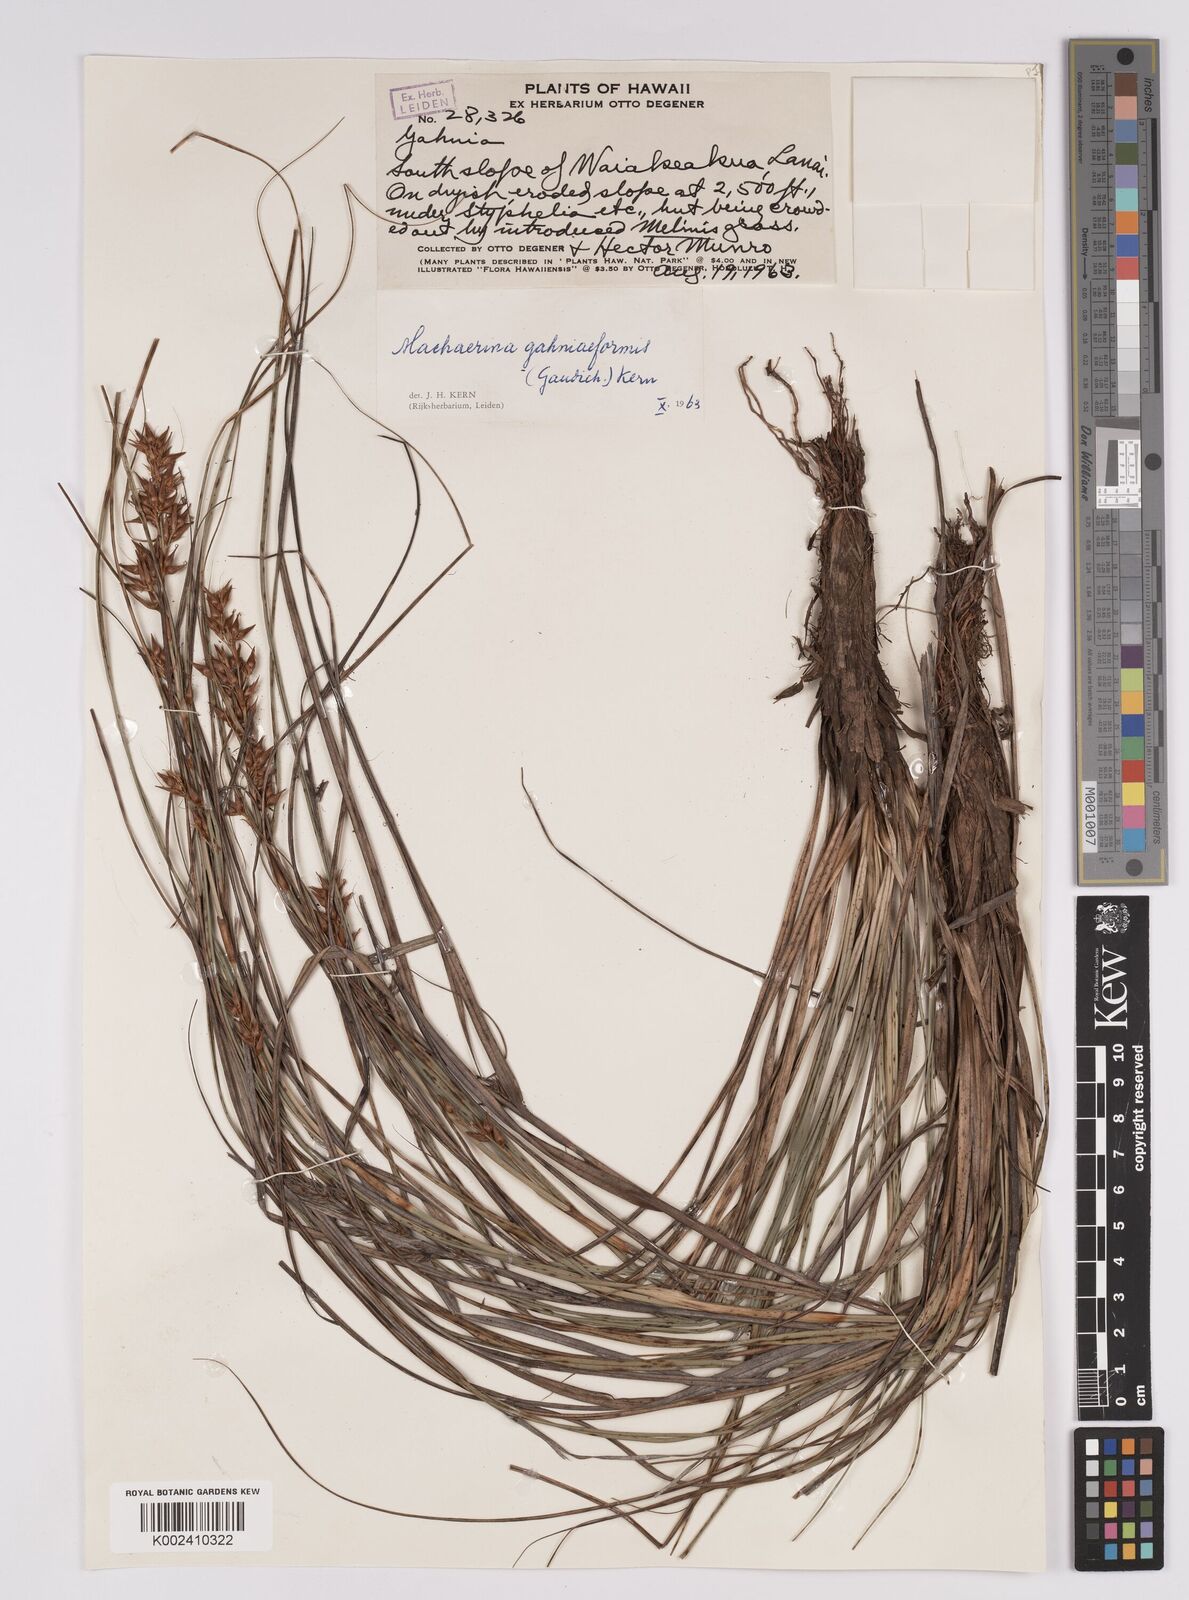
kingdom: Plantae
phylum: Tracheophyta
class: Liliopsida
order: Poales
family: Cyperaceae
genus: Morelotia
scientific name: Morelotia gahniiformis
